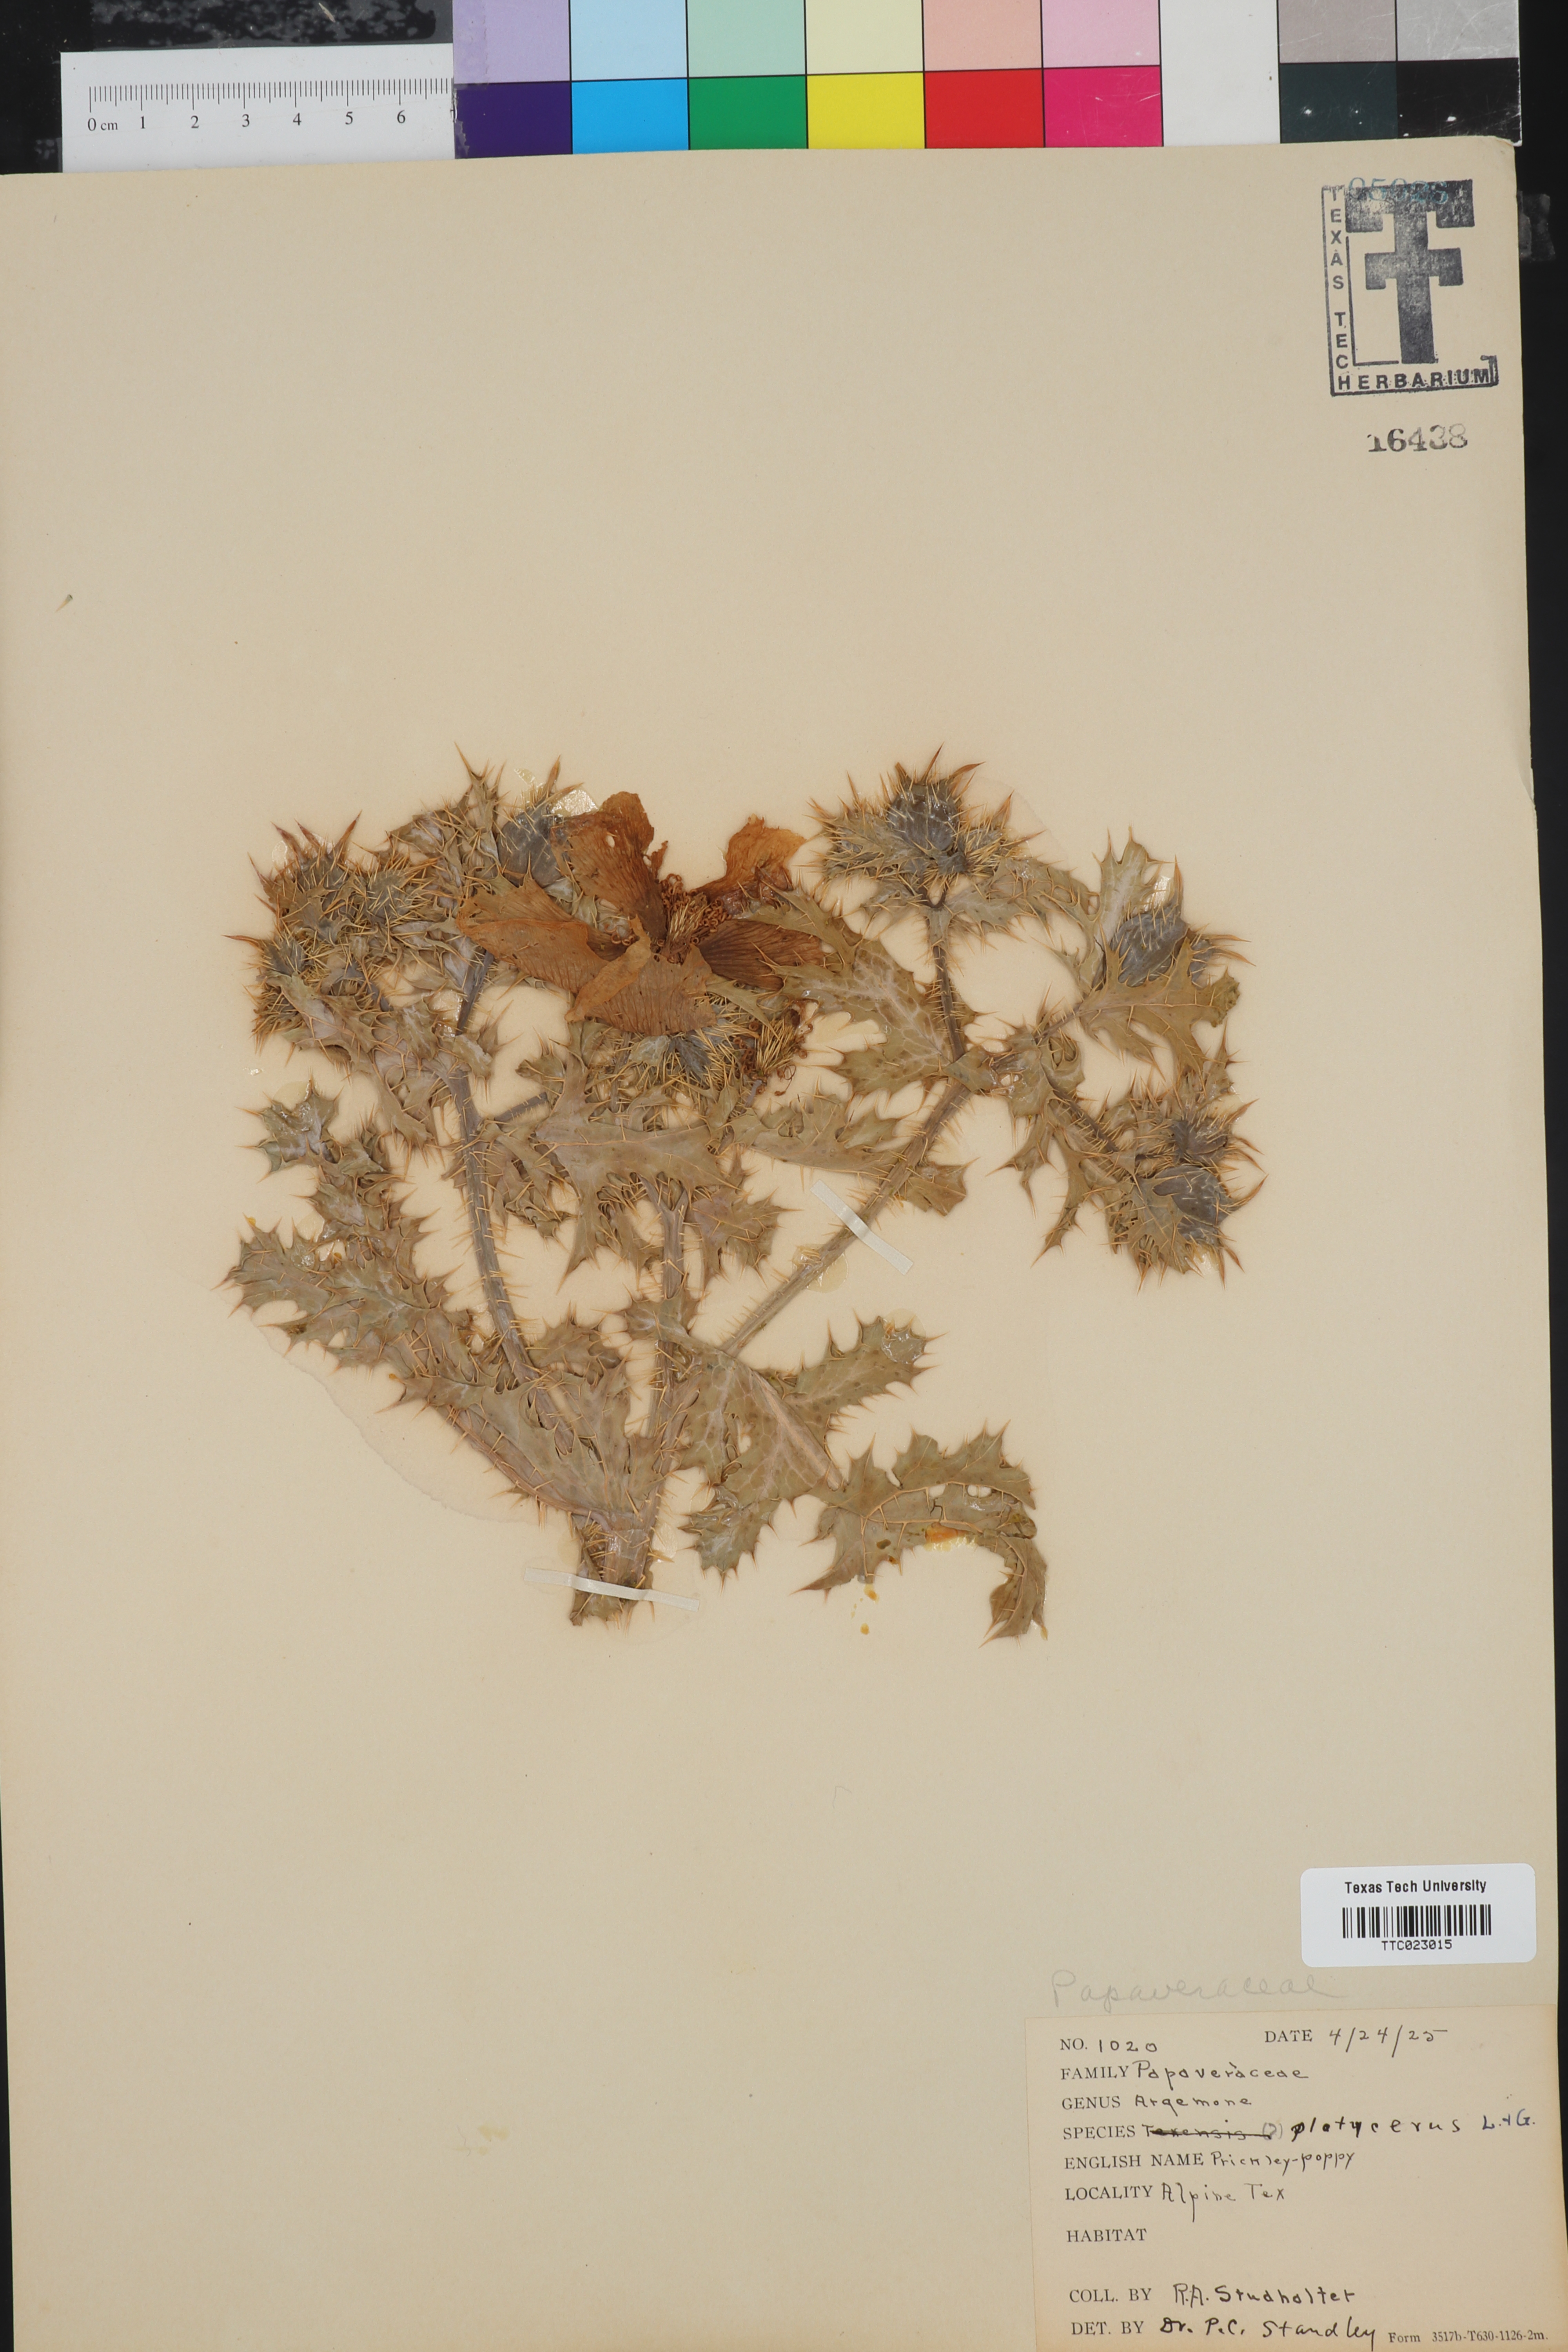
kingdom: Plantae
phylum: Tracheophyta
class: Magnoliopsida
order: Ranunculales
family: Papaveraceae
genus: Argemone
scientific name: Argemone platyceras
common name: Crested-poppy
